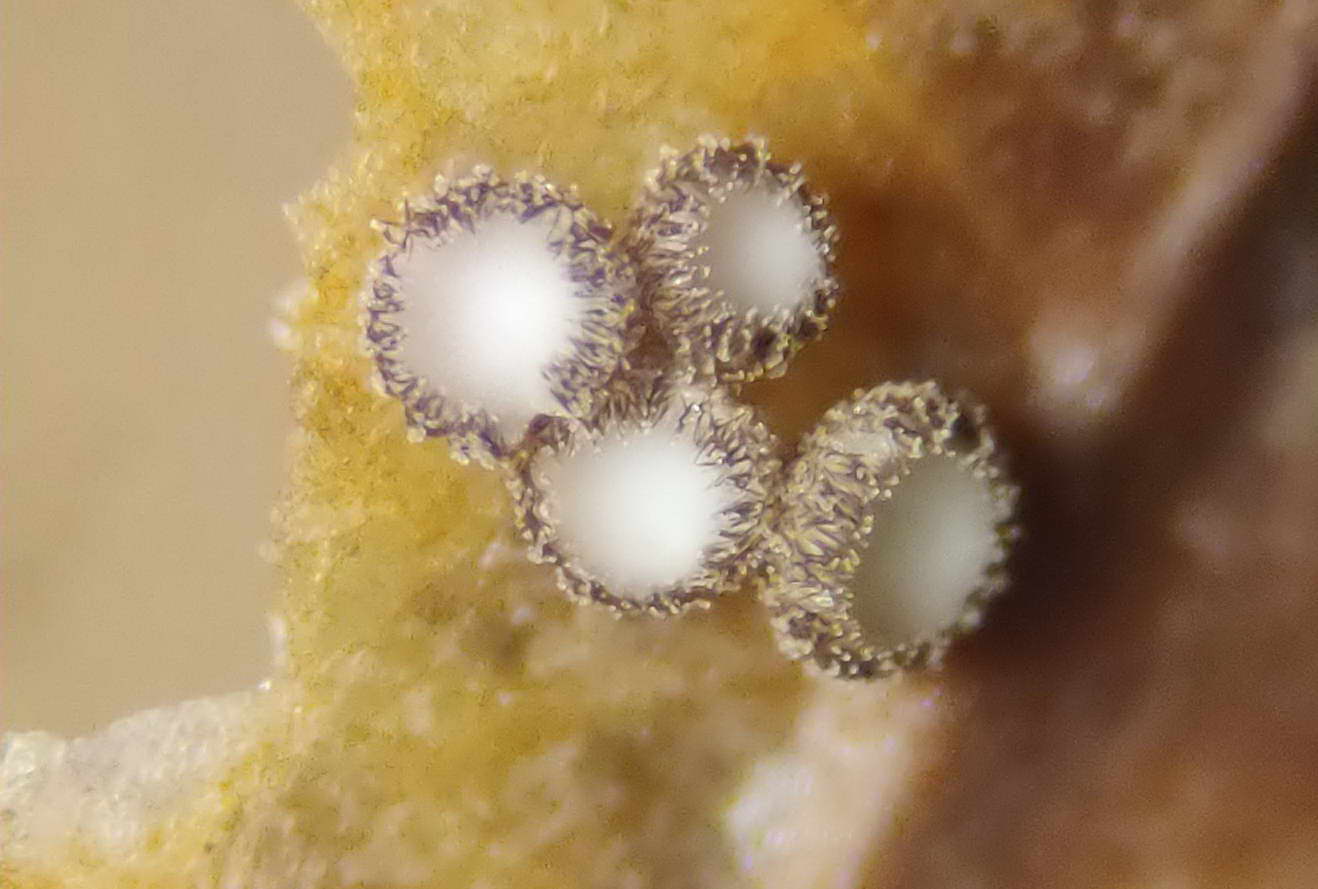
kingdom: Fungi
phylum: Ascomycota
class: Leotiomycetes
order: Helotiales
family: Lachnaceae
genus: Brunnipila
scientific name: Brunnipila brunneola
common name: læderbrun frynseskive
